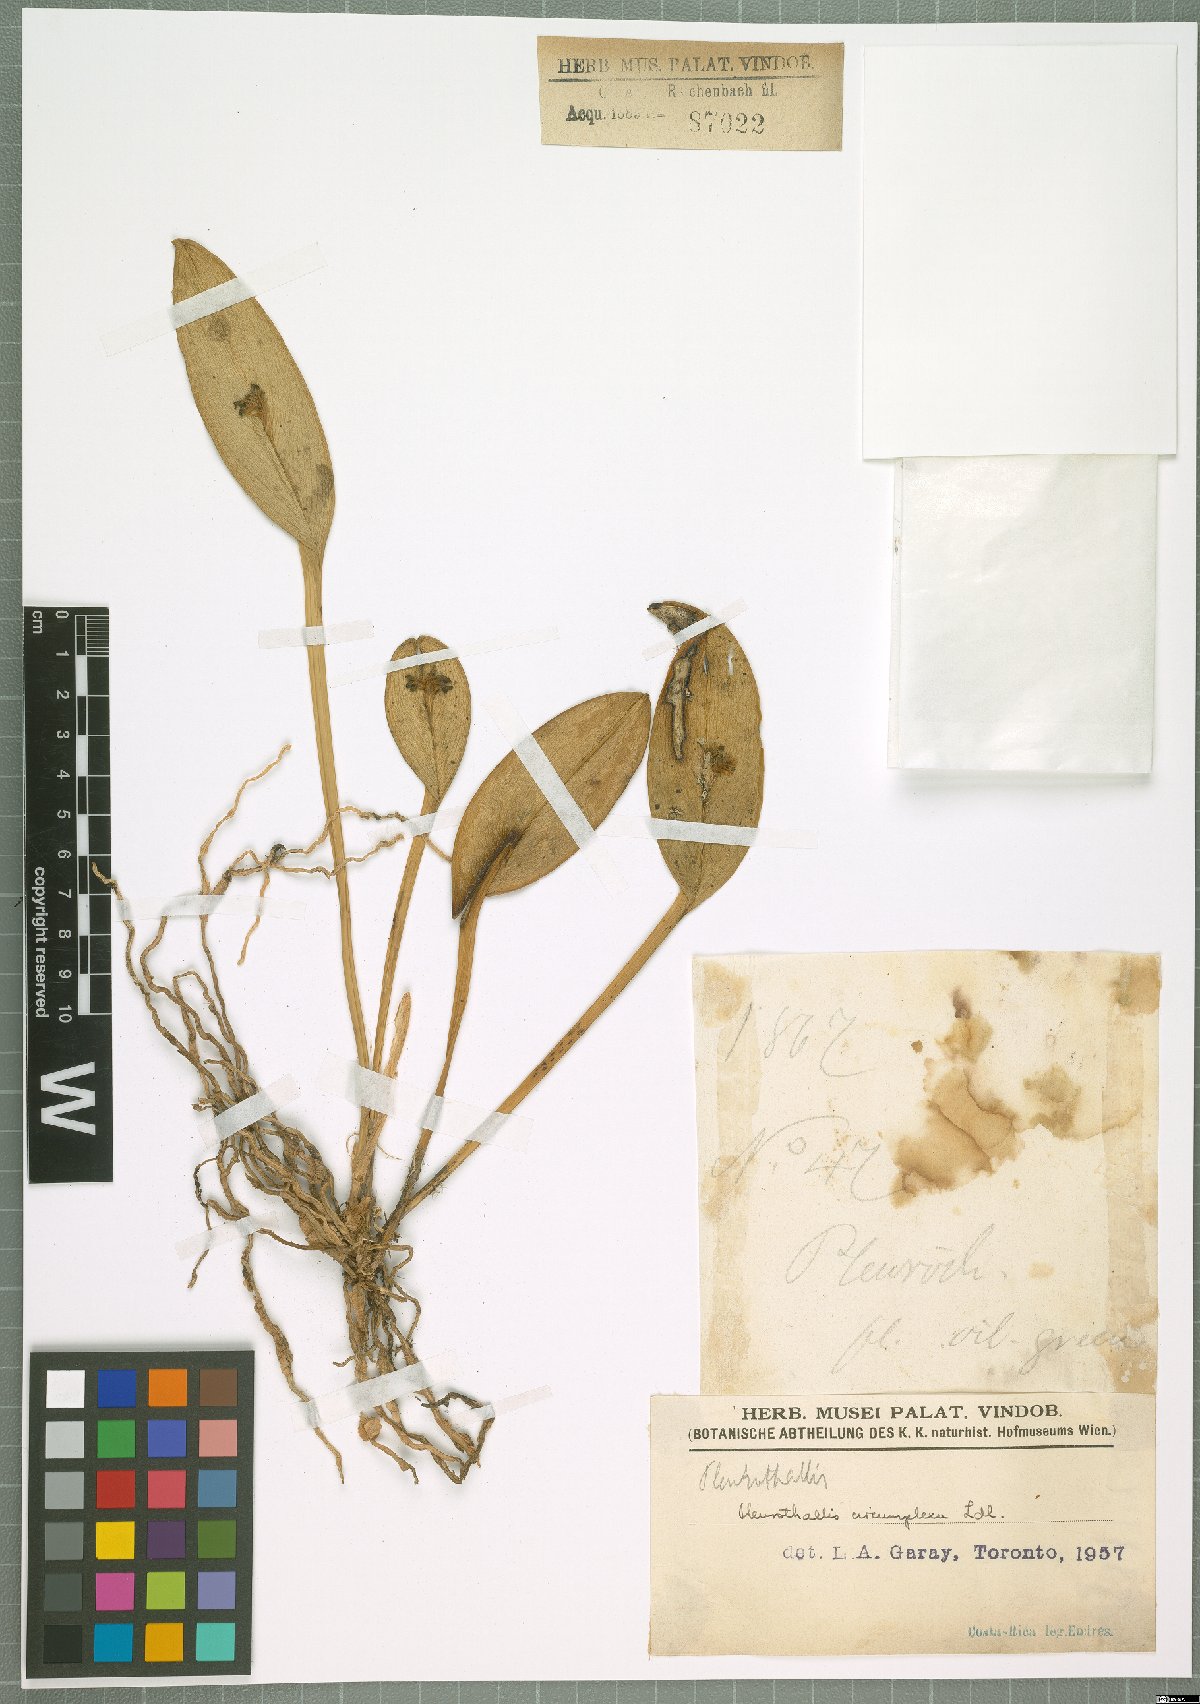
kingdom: Plantae
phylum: Tracheophyta
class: Liliopsida
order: Asparagales
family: Orchidaceae
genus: Acianthera
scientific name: Acianthera circumplexa
